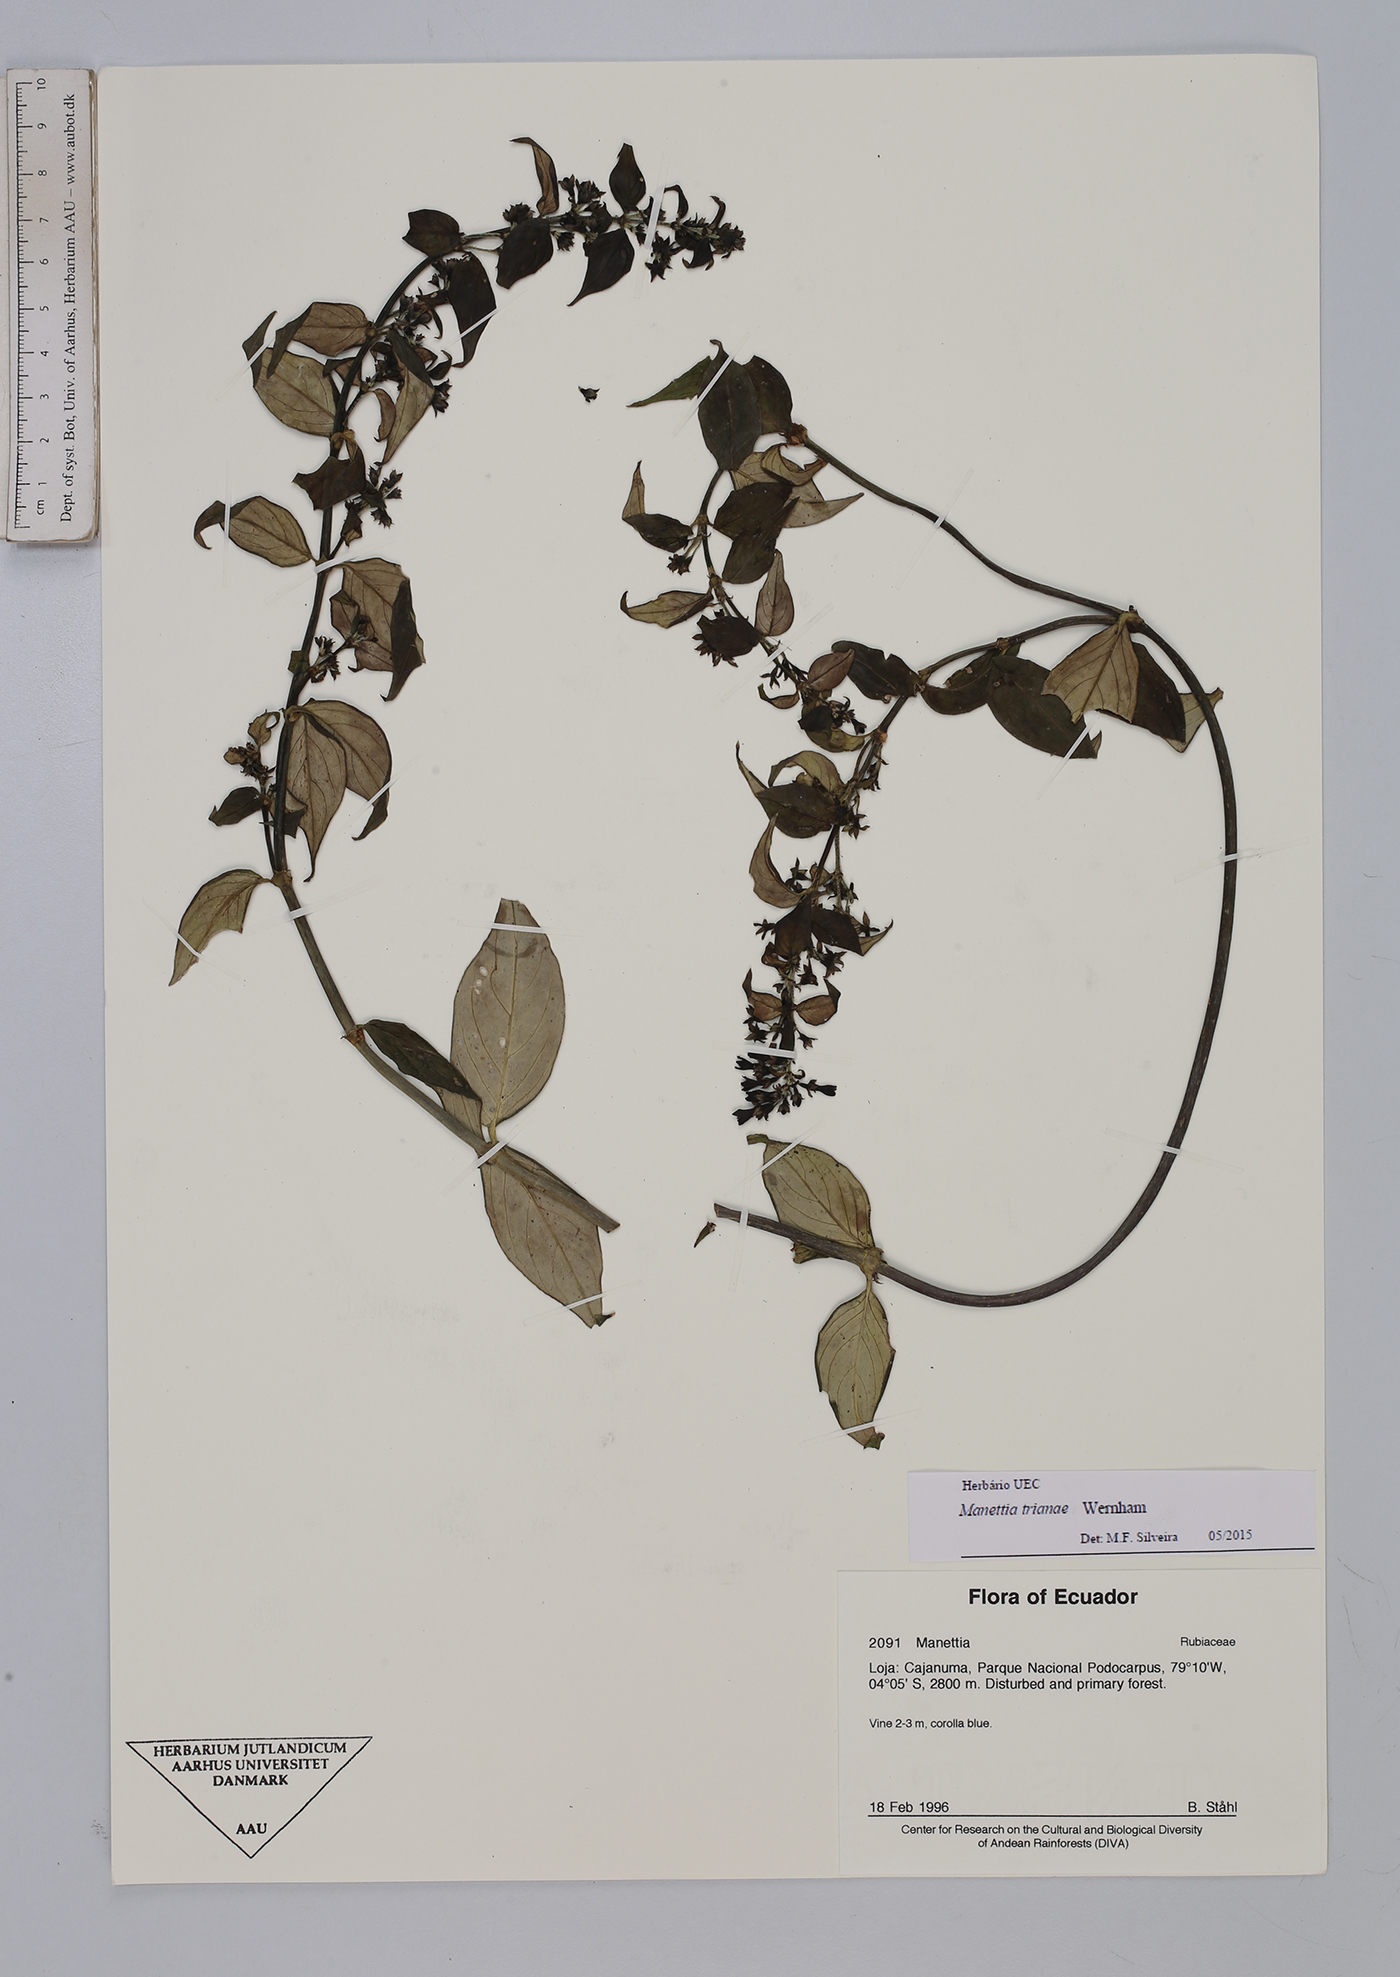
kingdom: Plantae
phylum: Tracheophyta
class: Magnoliopsida
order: Gentianales
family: Rubiaceae
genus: Manettia
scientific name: Manettia trianae
